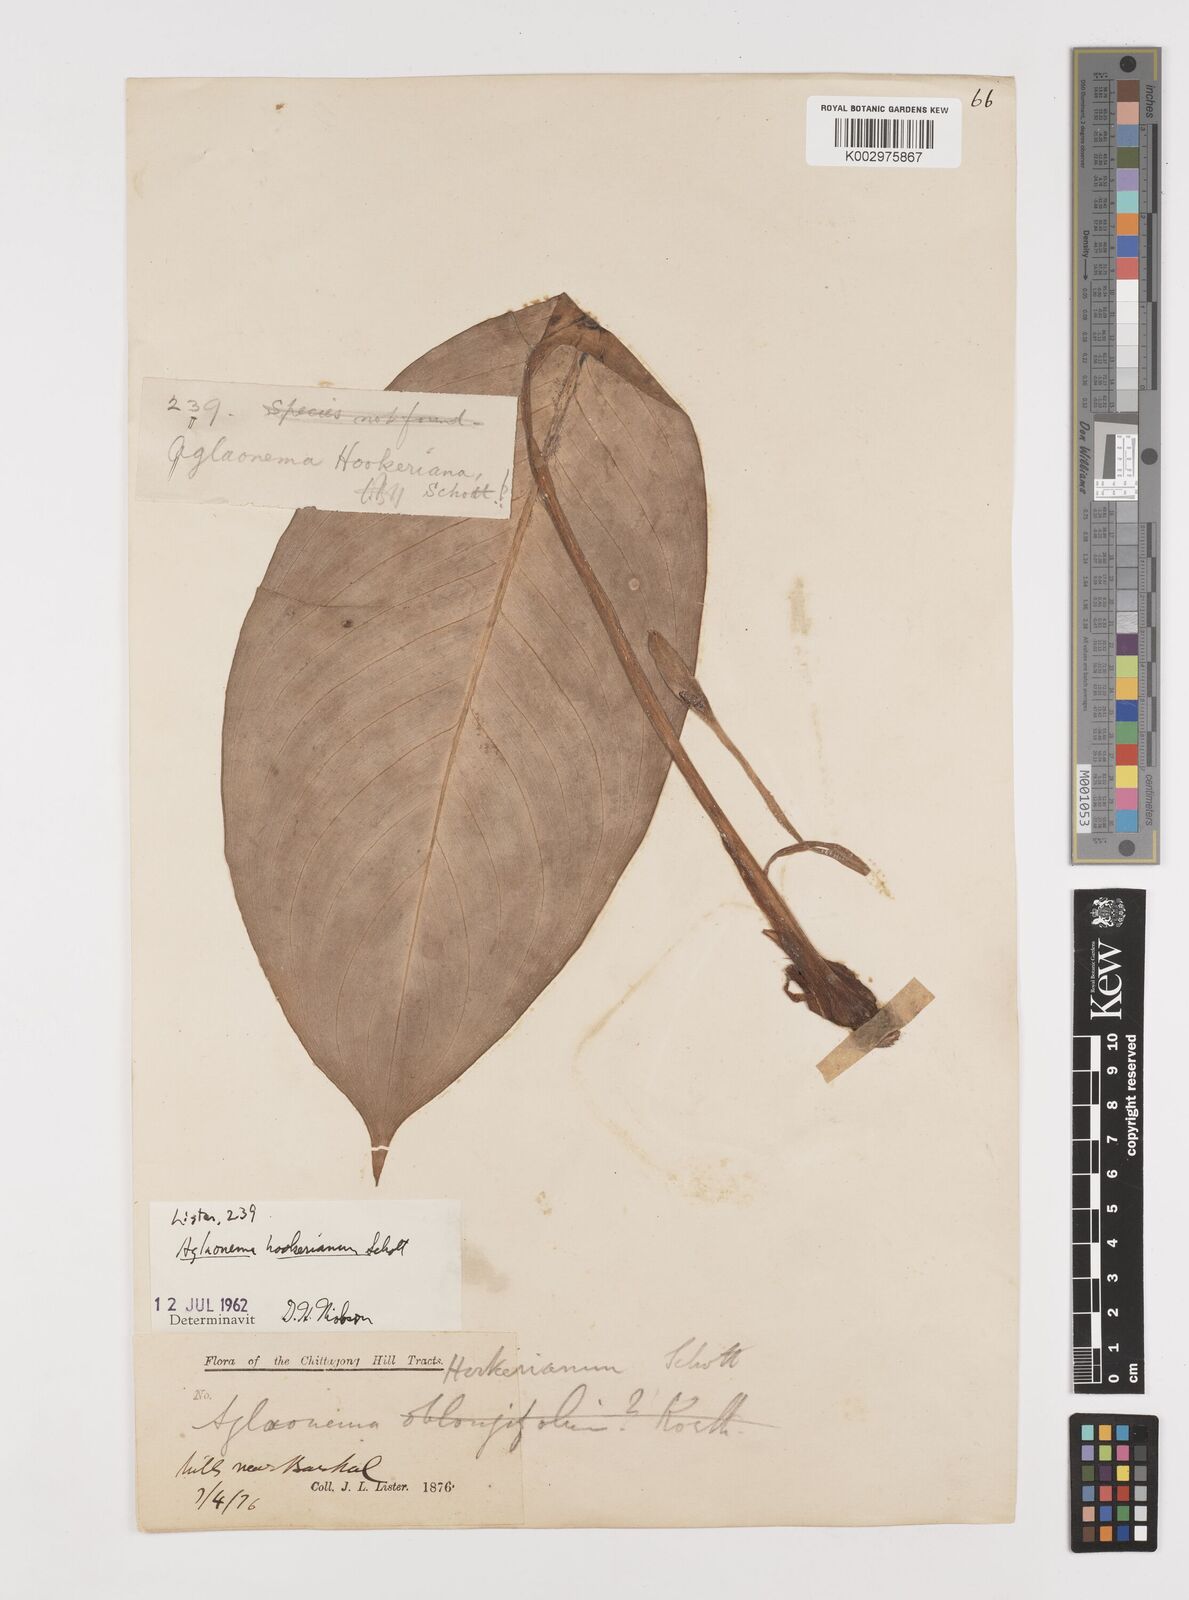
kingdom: Plantae
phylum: Tracheophyta
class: Liliopsida
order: Alismatales
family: Araceae
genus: Aglaonema
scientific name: Aglaonema hookerianum
